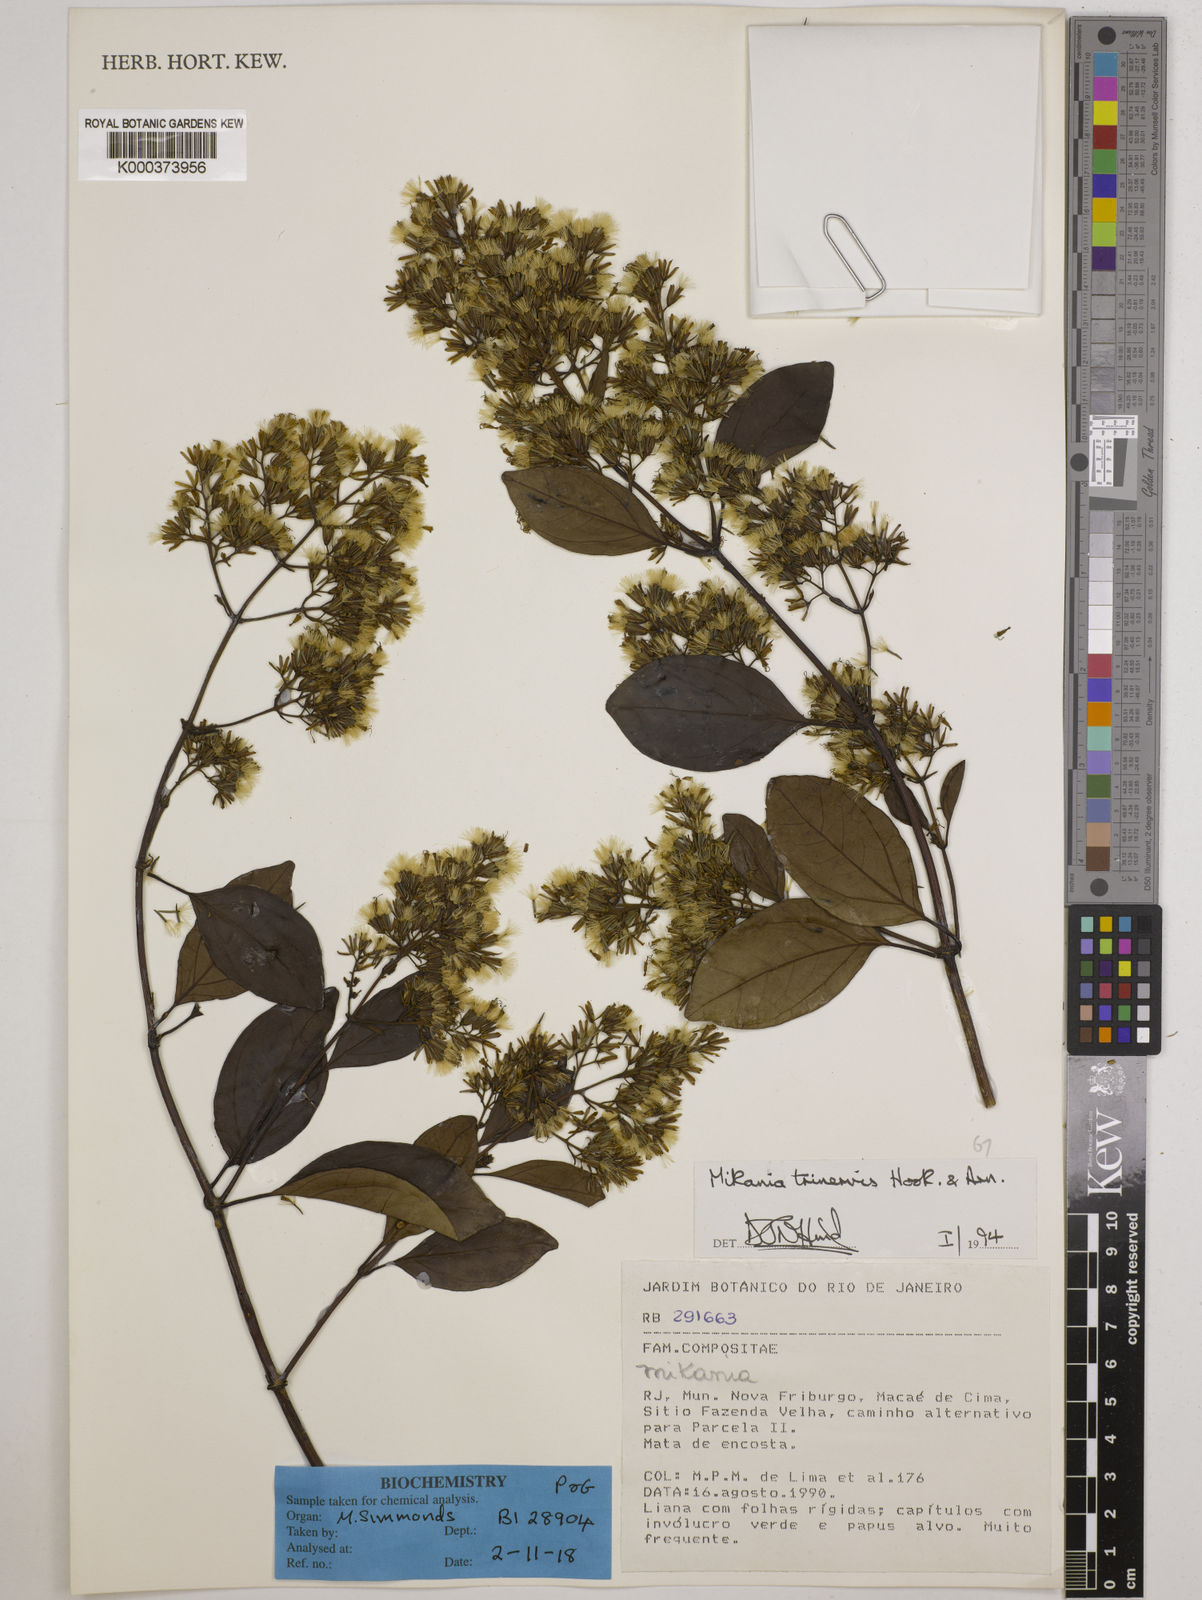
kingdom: Plantae
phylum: Tracheophyta
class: Magnoliopsida
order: Asterales
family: Asteraceae
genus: Mikania
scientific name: Mikania trinervis
